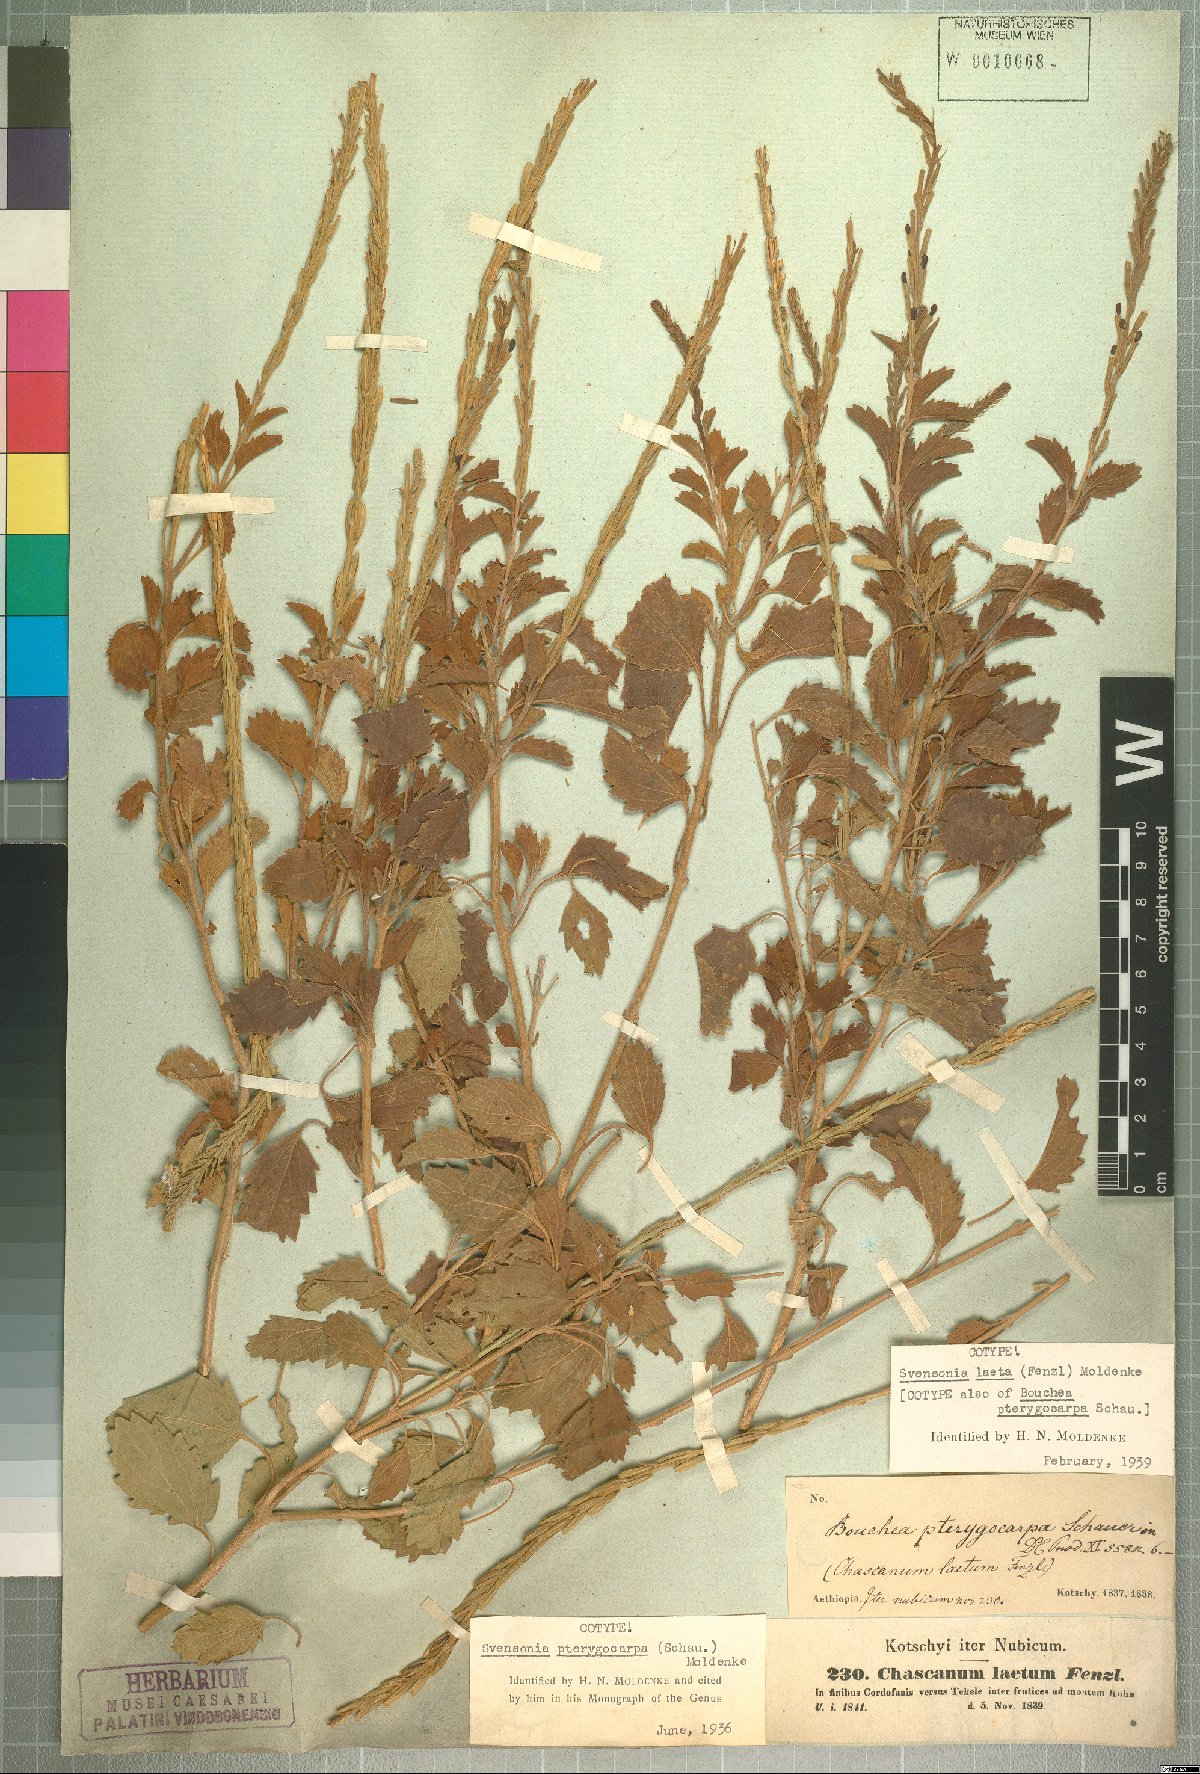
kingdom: Plantae
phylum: Tracheophyta
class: Magnoliopsida
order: Lamiales
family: Verbenaceae
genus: Chascanum
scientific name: Chascanum laetum
